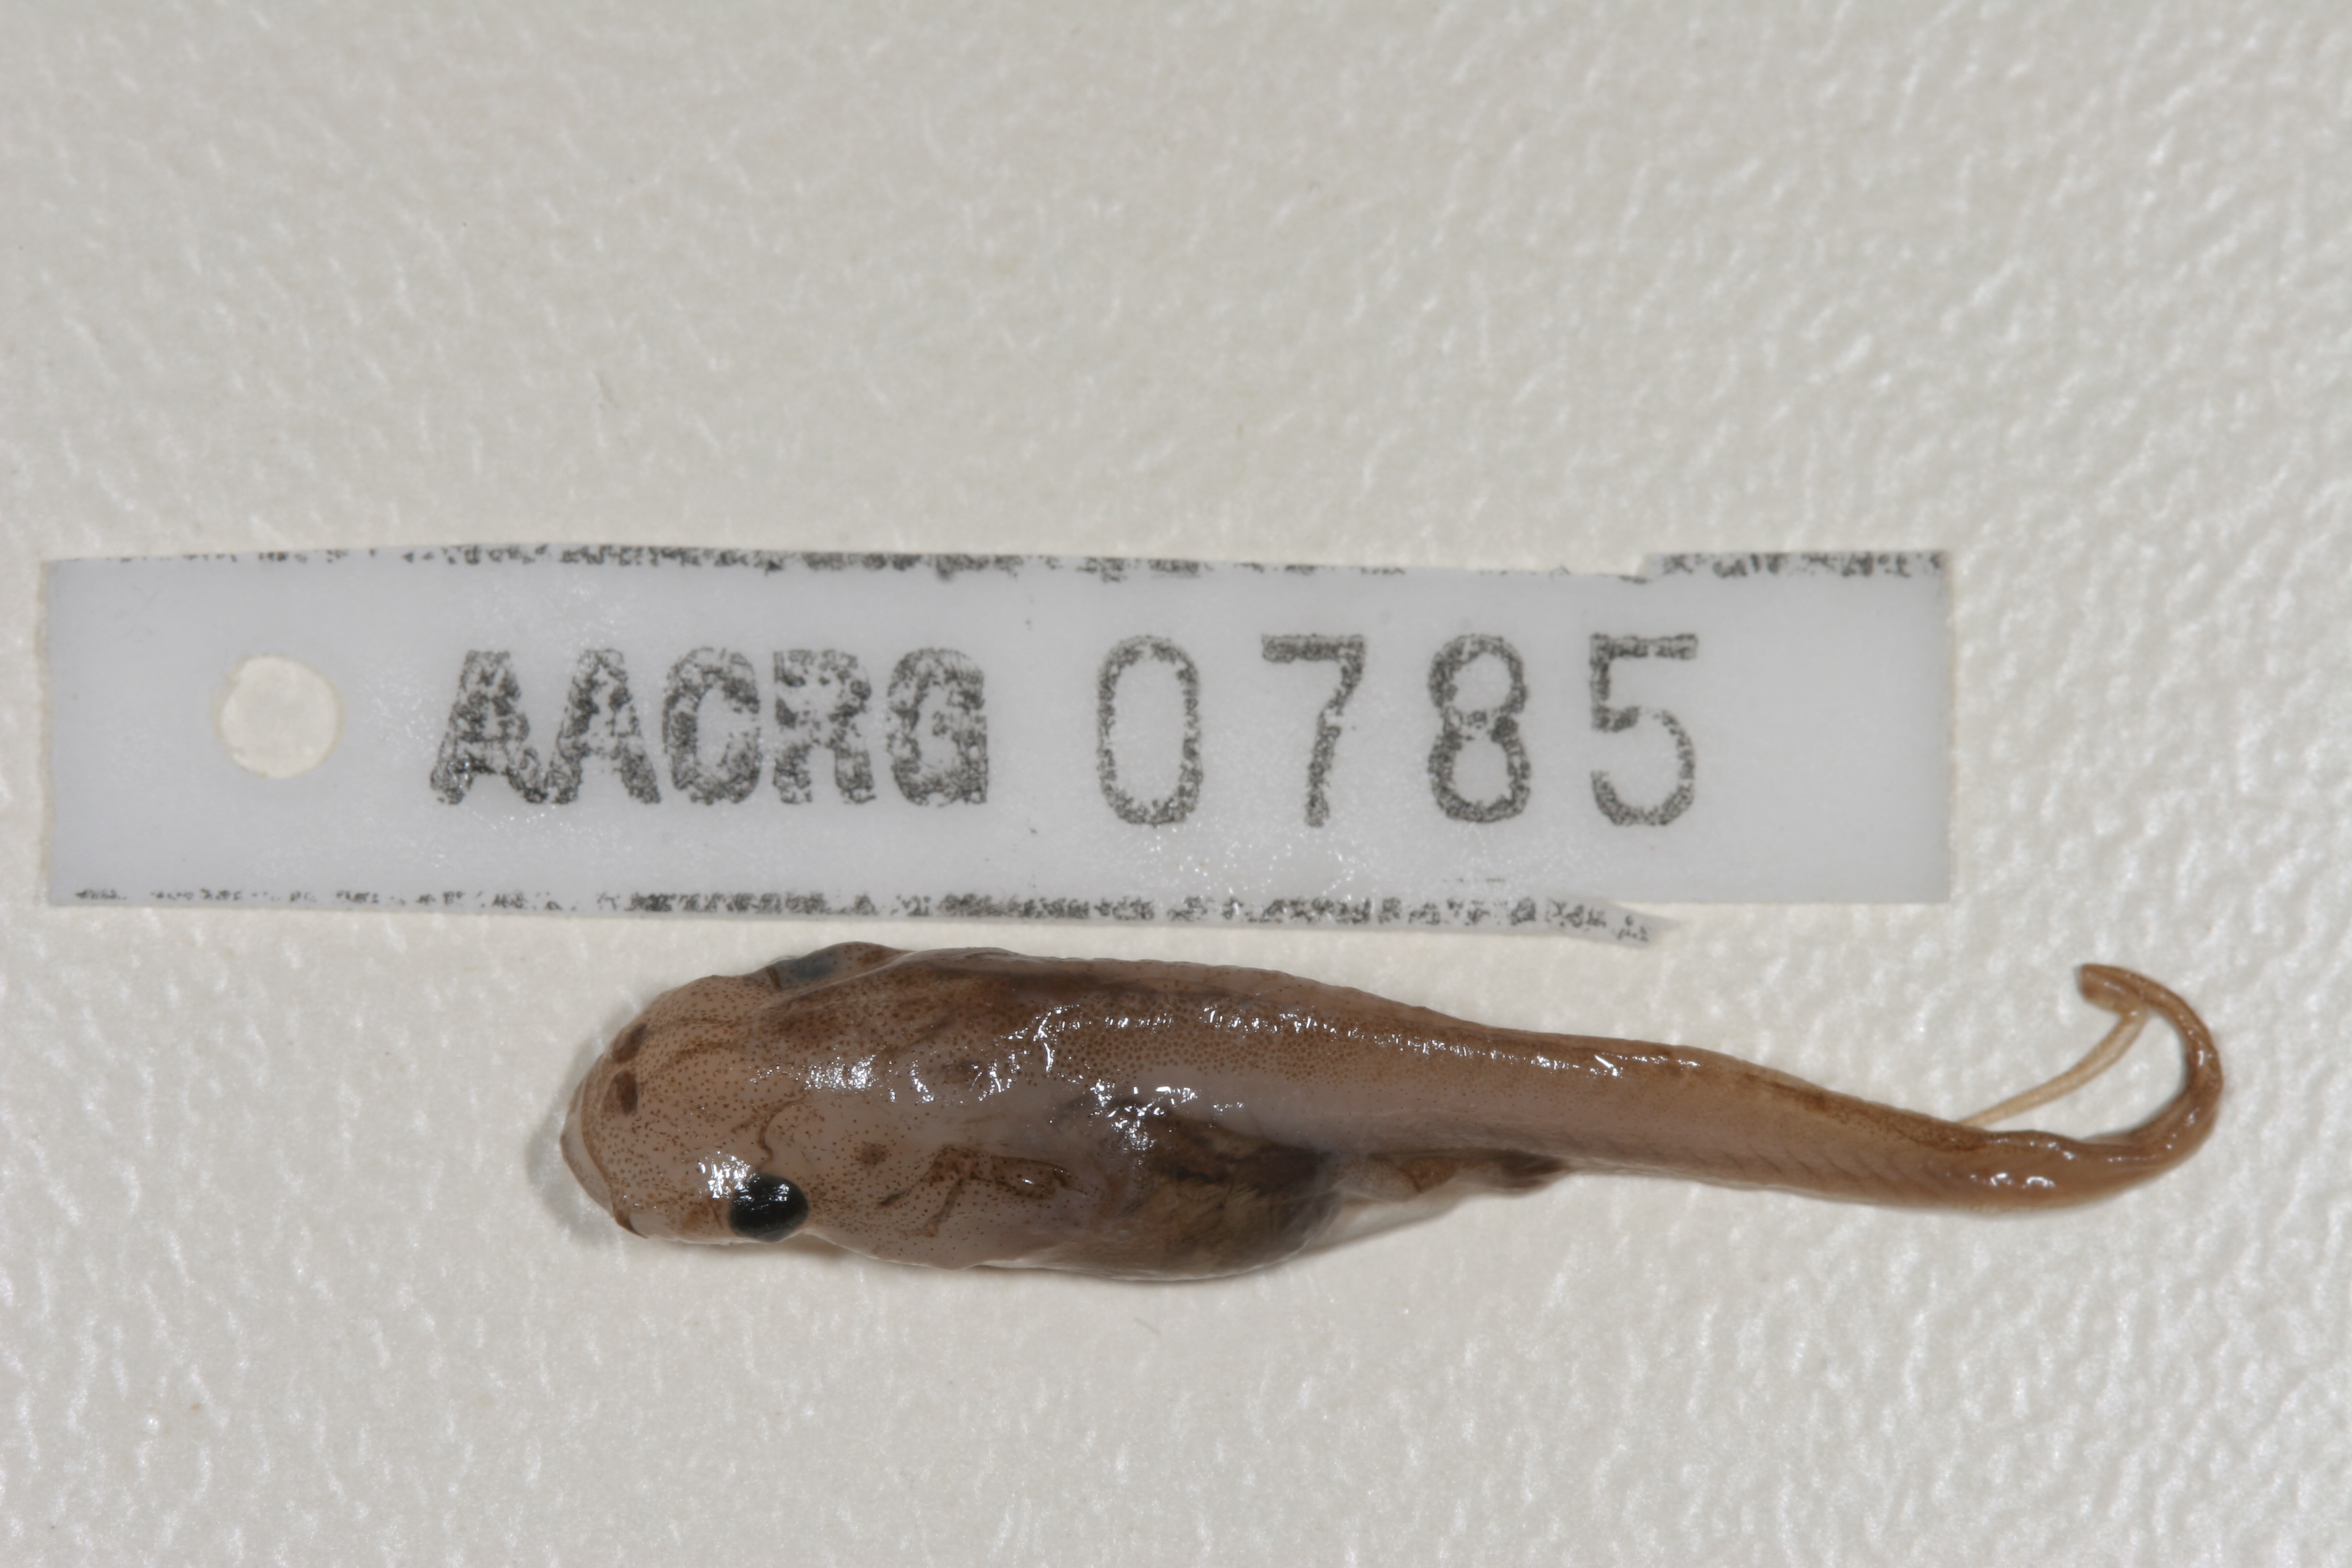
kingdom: Animalia
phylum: Chordata
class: Amphibia
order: Anura
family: Pipidae
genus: Xenopus
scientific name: Xenopus gilli
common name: Gill's platanna
